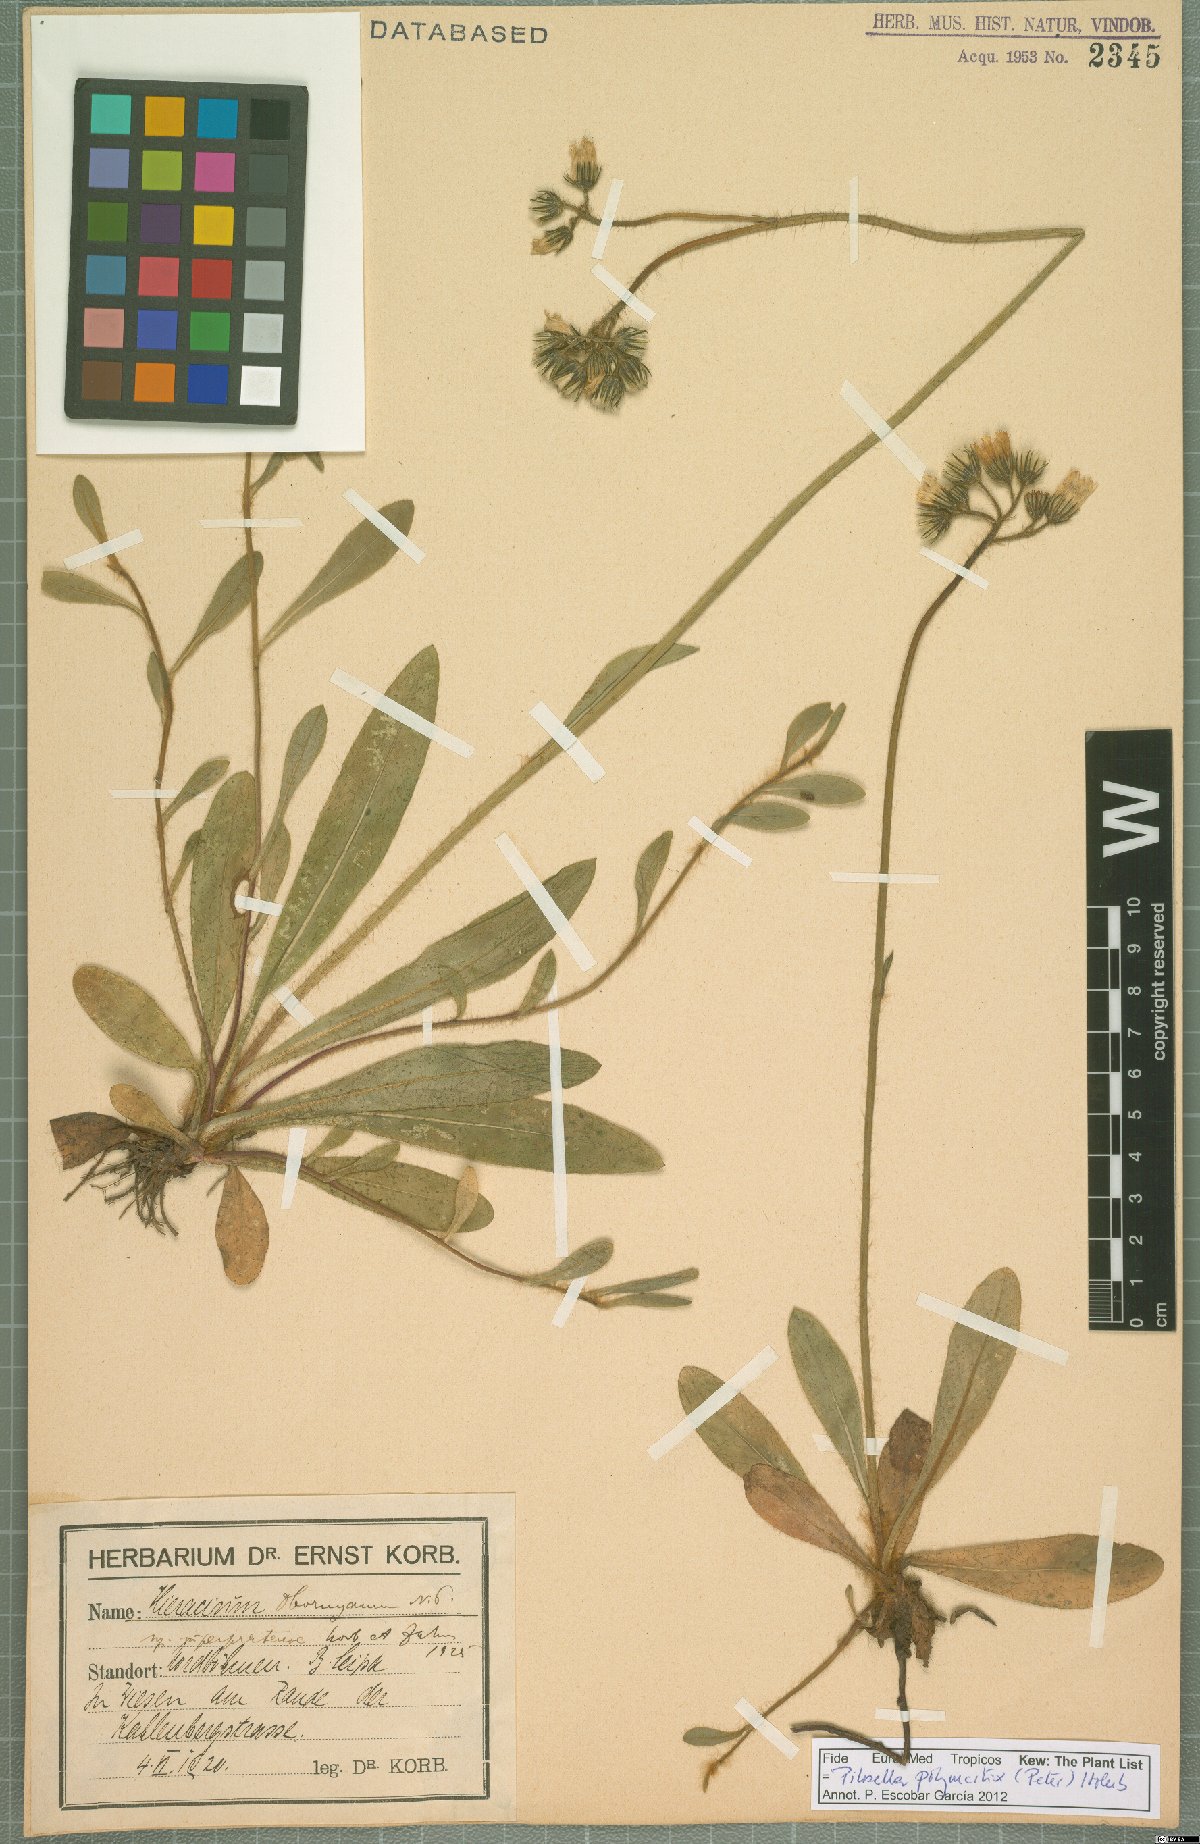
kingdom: Plantae
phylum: Tracheophyta
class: Magnoliopsida
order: Asterales
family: Asteraceae
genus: Pilosella
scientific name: Pilosella polymastix
